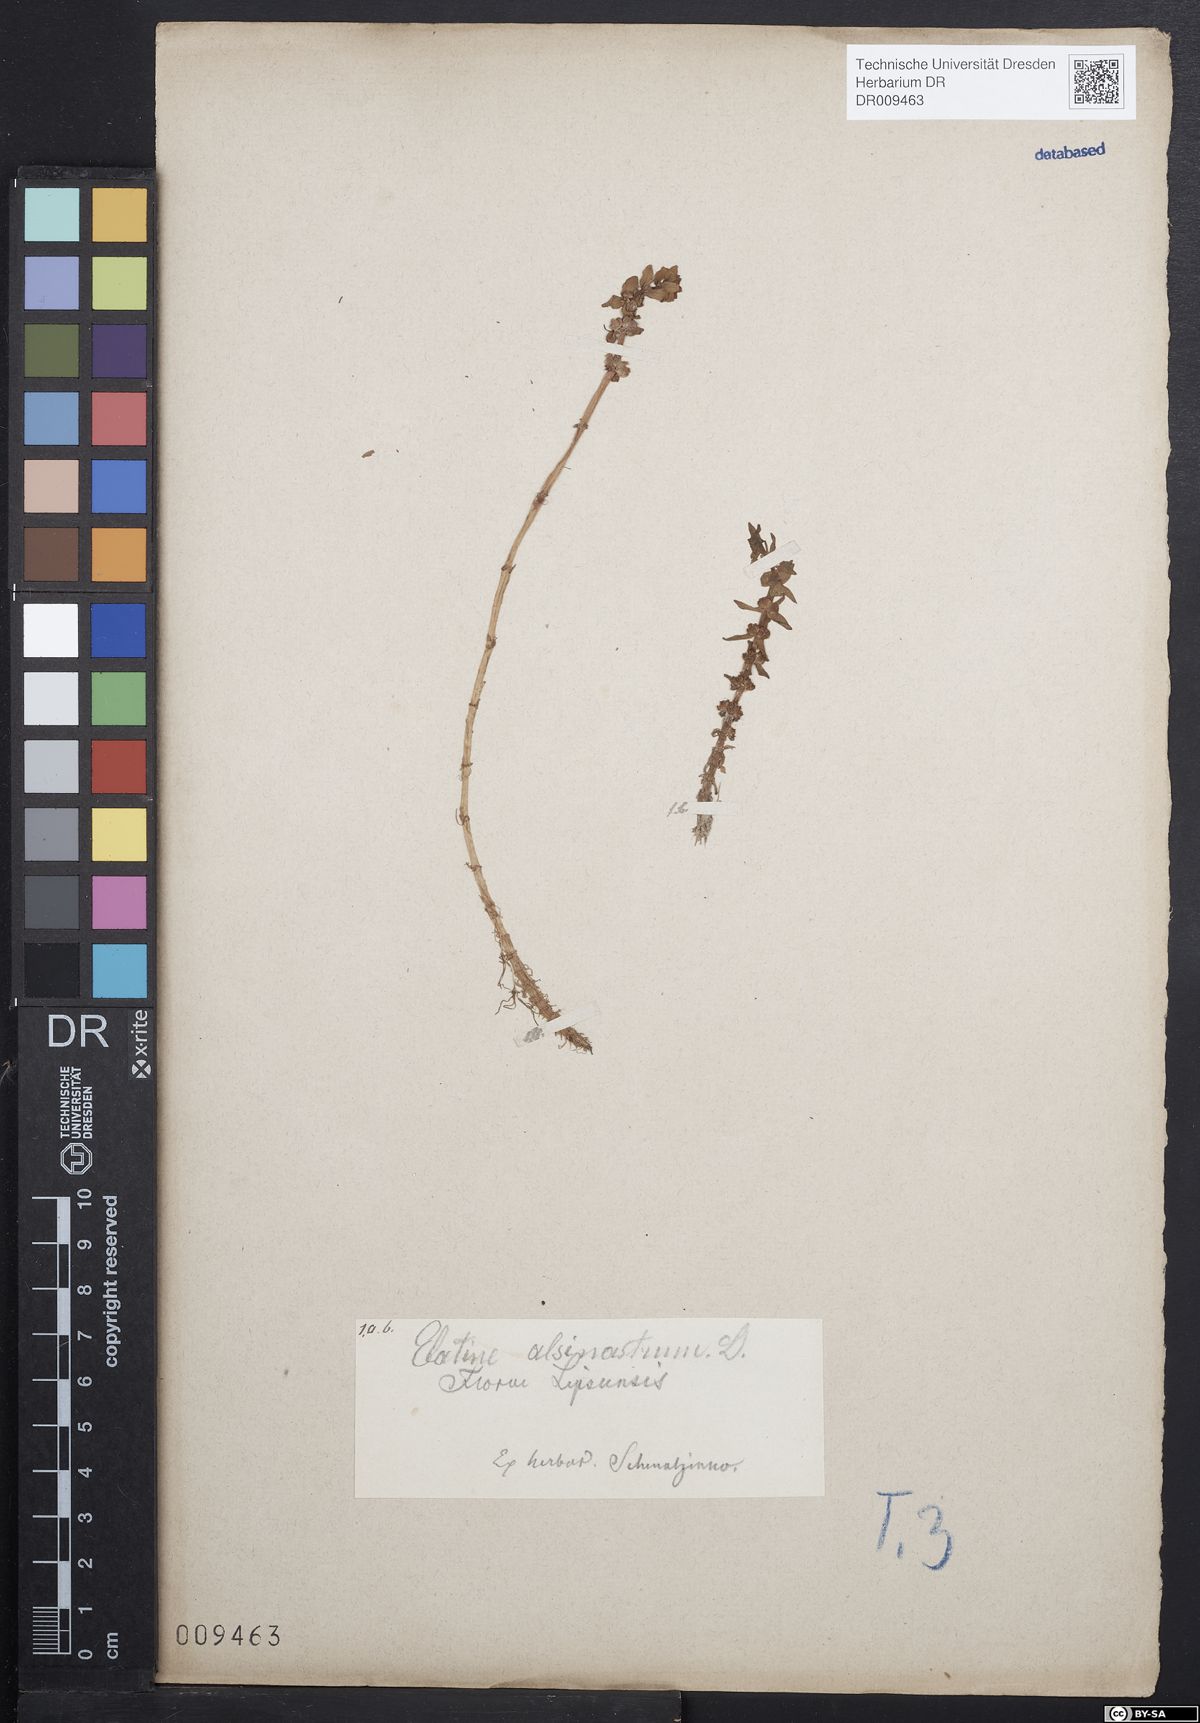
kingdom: Plantae
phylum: Tracheophyta
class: Magnoliopsida
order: Malpighiales
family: Elatinaceae
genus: Elatine
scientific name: Elatine alsinastrum
